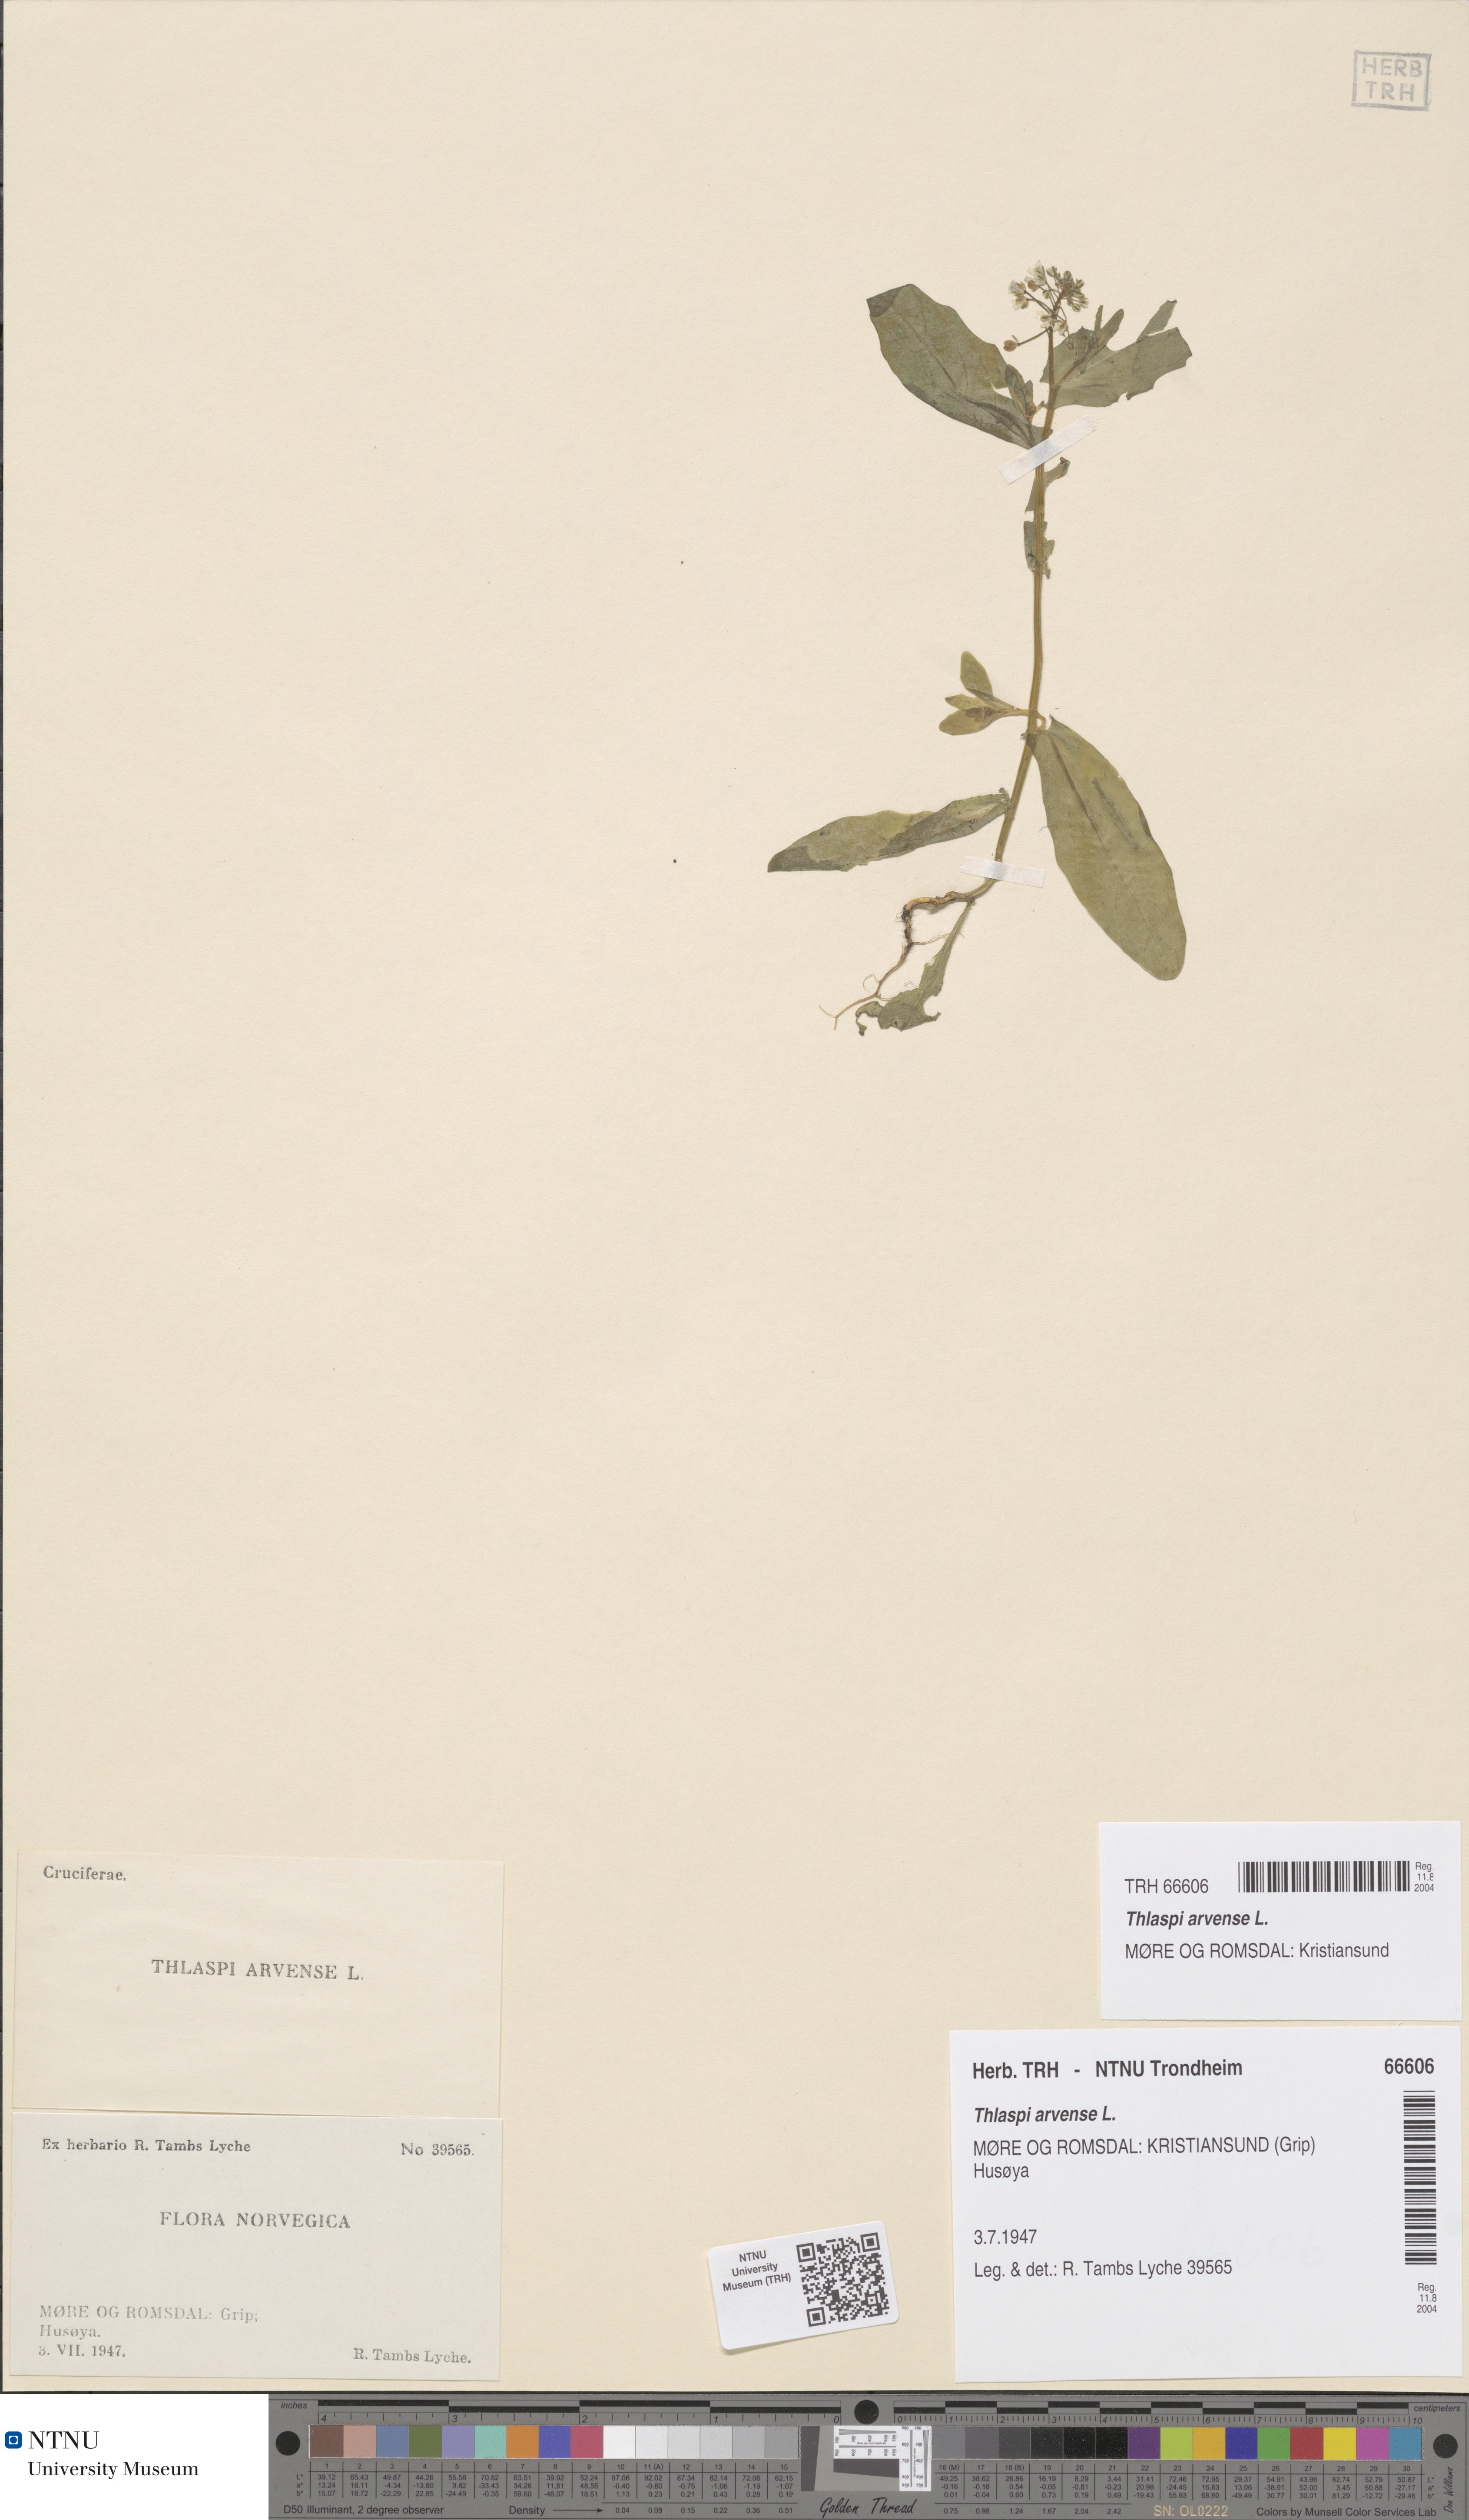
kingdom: Plantae
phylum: Tracheophyta
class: Magnoliopsida
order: Brassicales
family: Brassicaceae
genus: Thlaspi
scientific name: Thlaspi arvense
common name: Field pennycress
